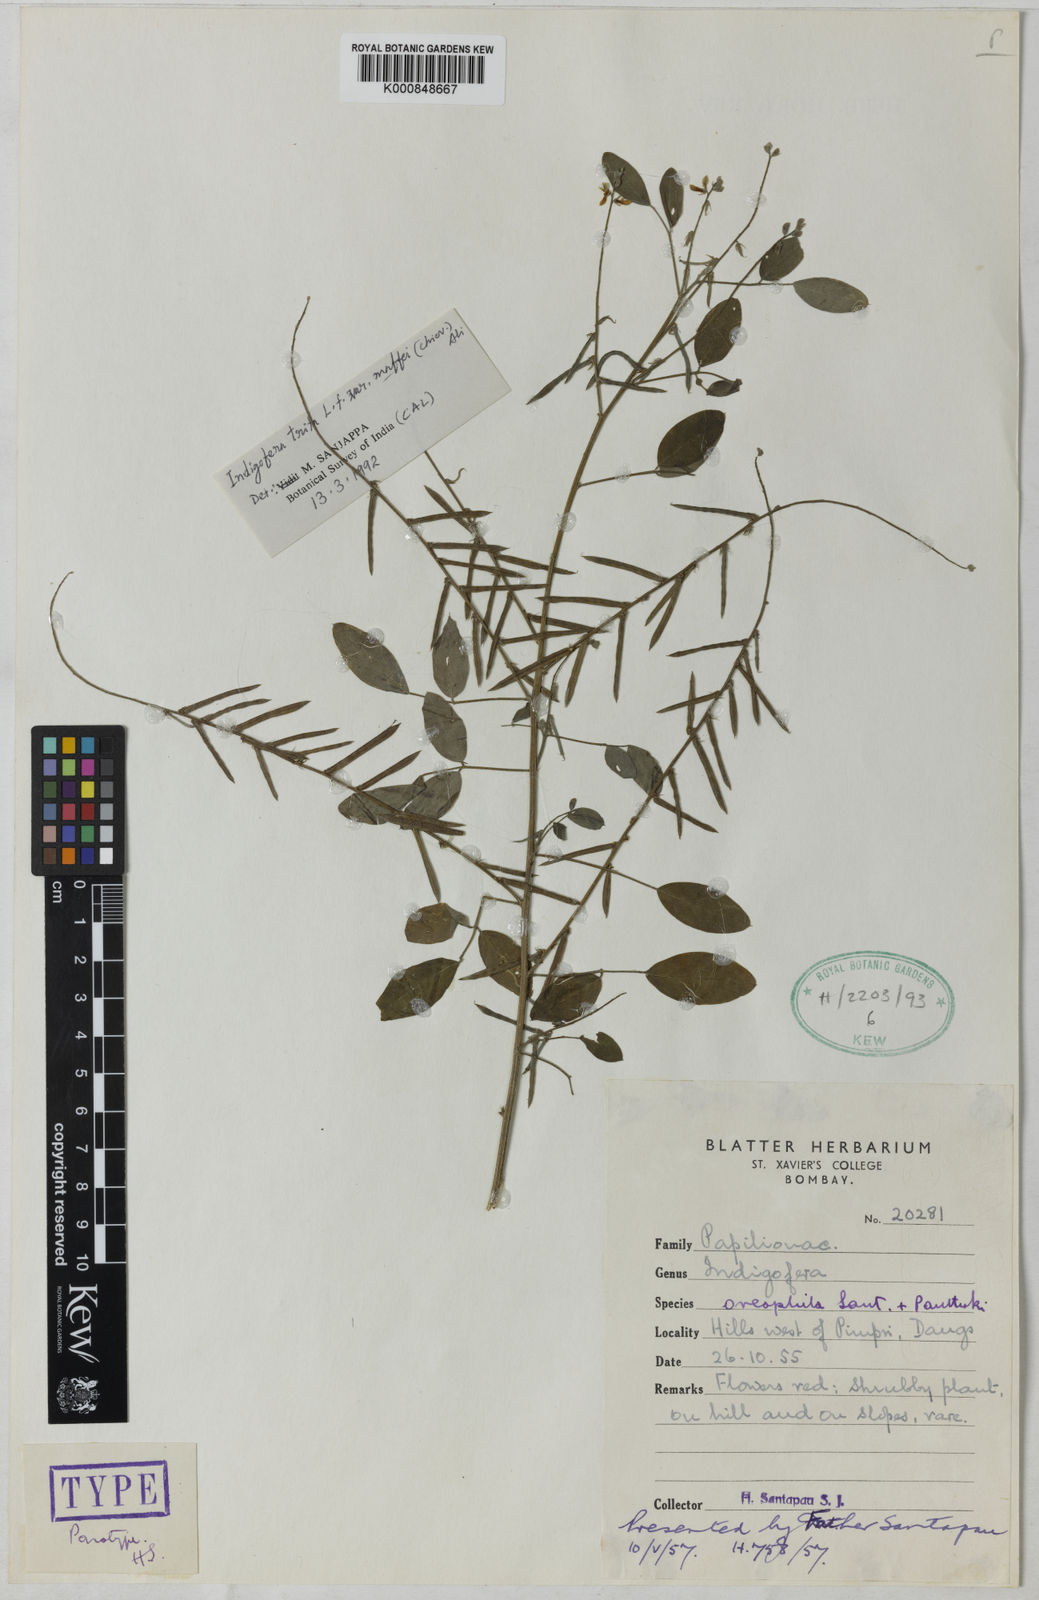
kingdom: Plantae
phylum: Tracheophyta
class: Magnoliopsida
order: Fabales
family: Fabaceae
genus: Indigofera
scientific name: Indigofera pedicellata
